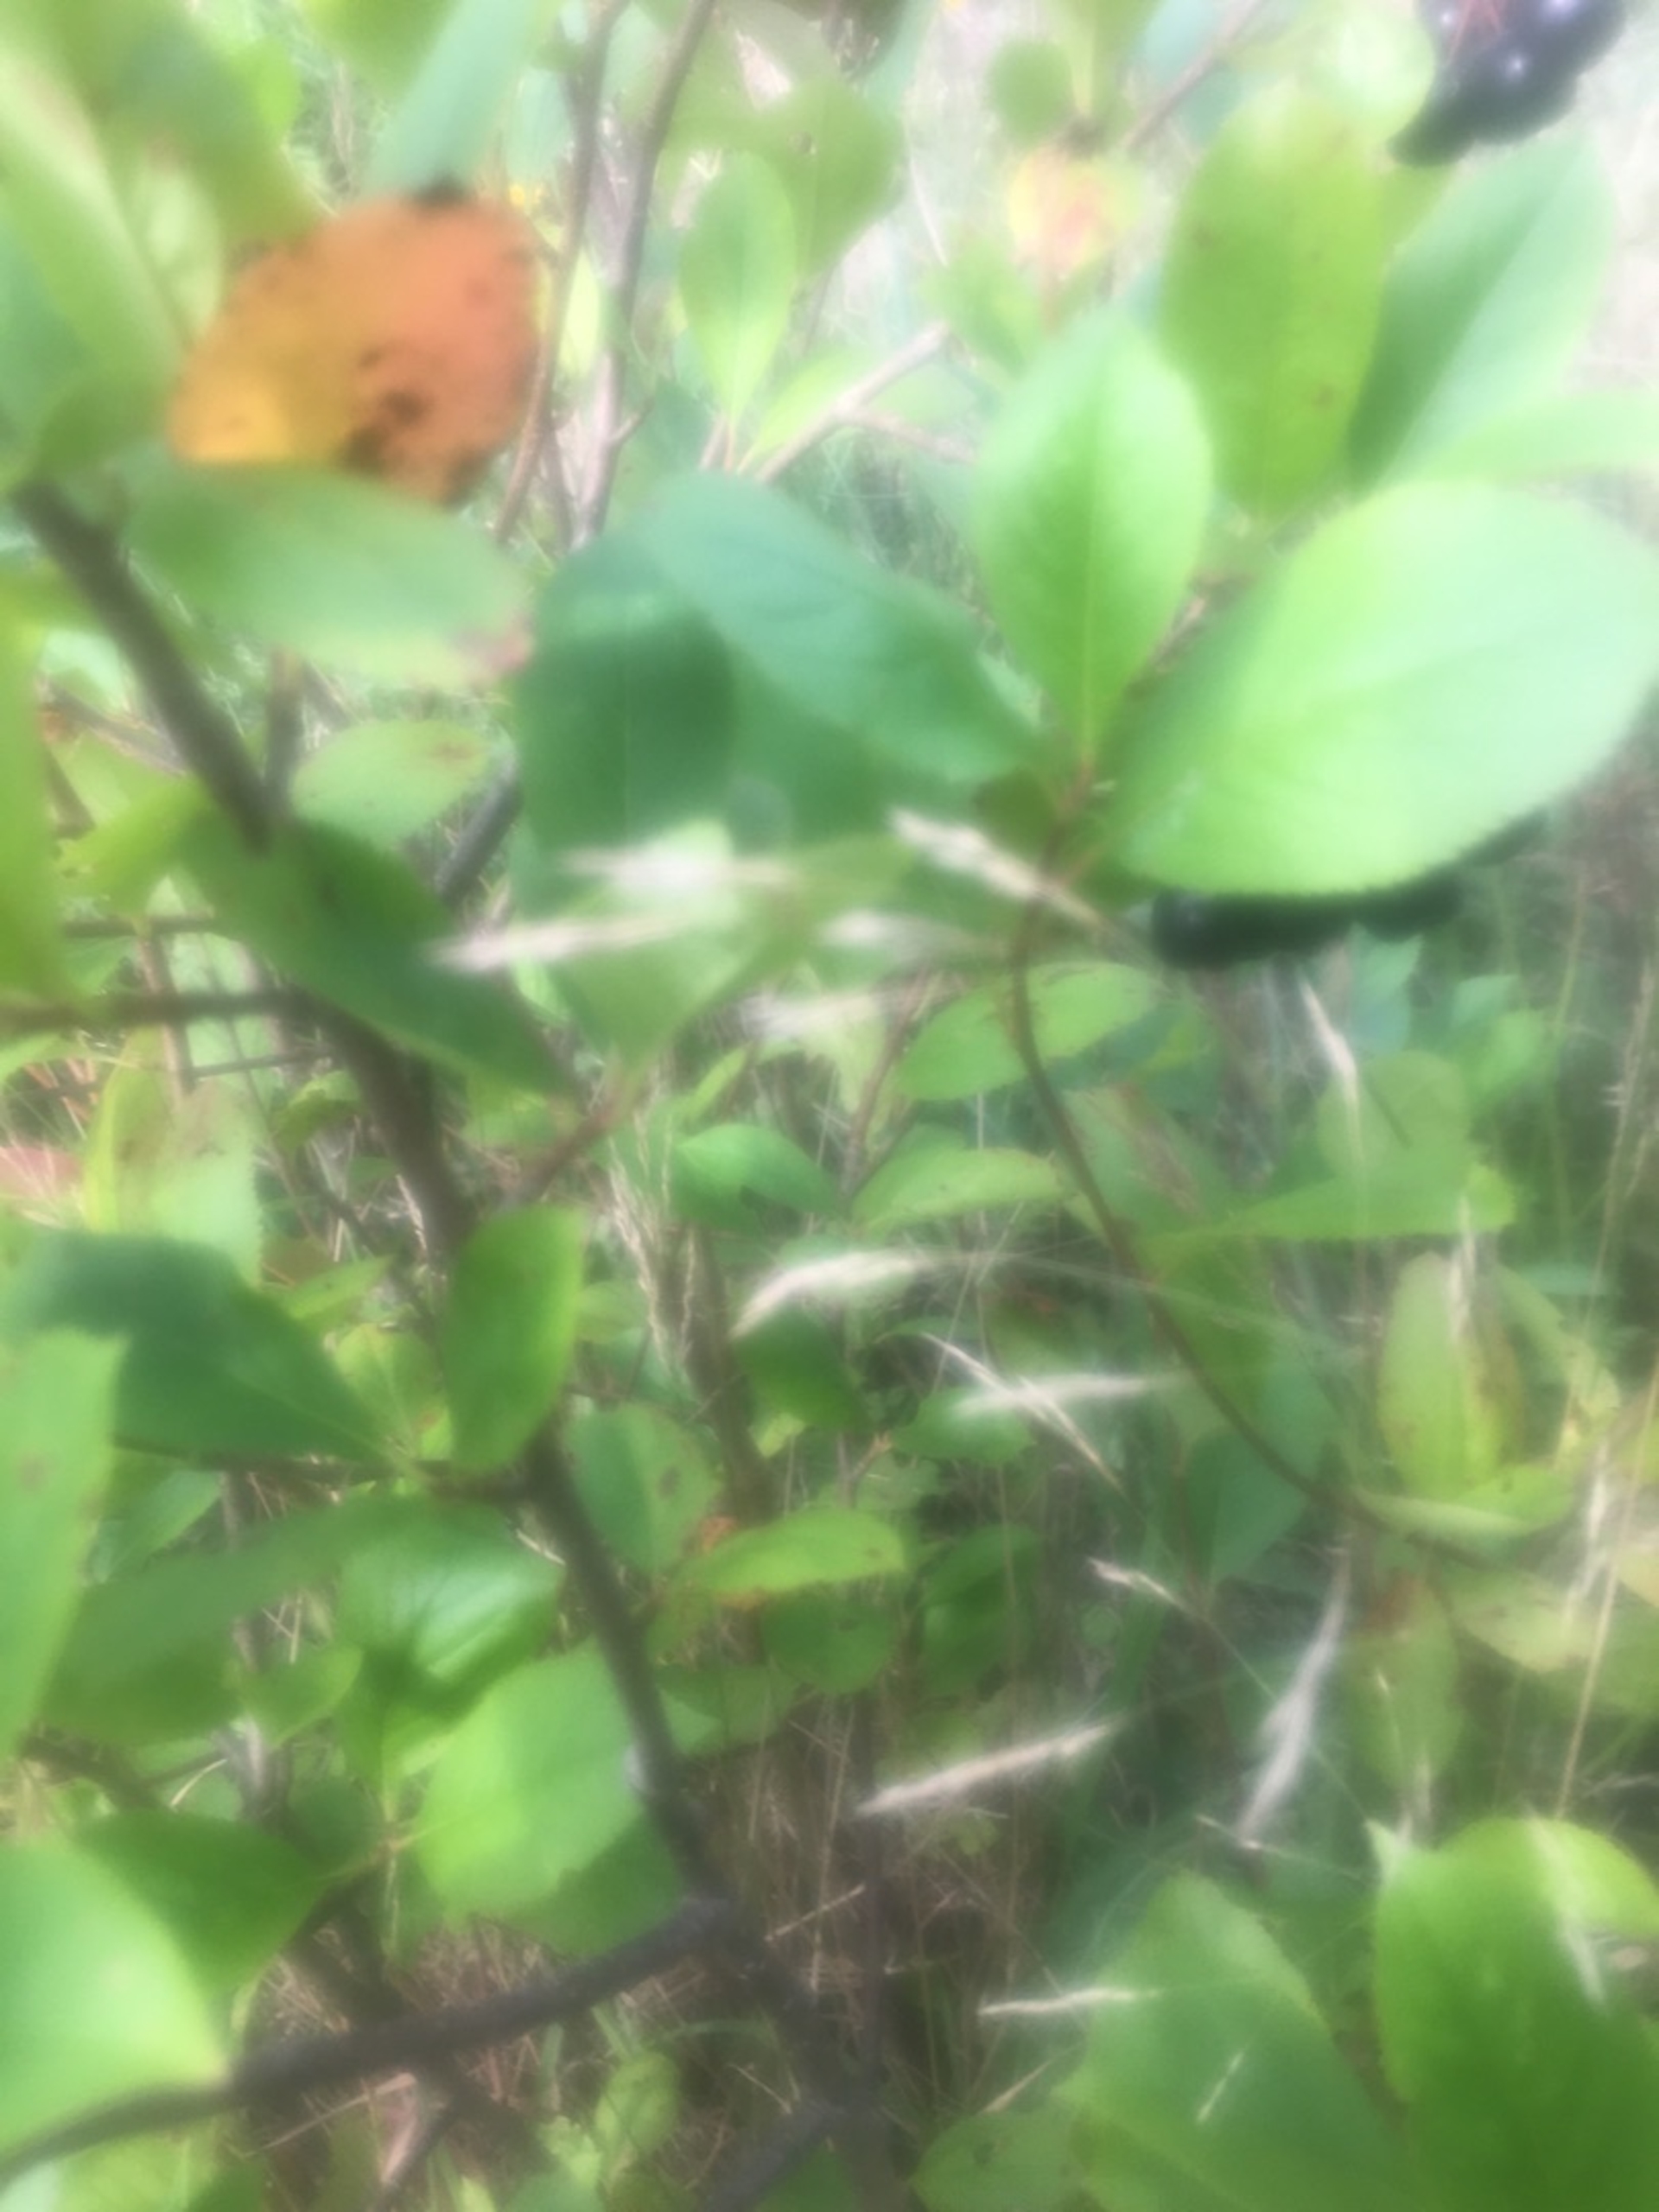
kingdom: Plantae
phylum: Tracheophyta
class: Magnoliopsida
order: Rosales
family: Rosaceae
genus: Aronia
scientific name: Aronia melanocarpa
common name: Sortfrugtet surbær
